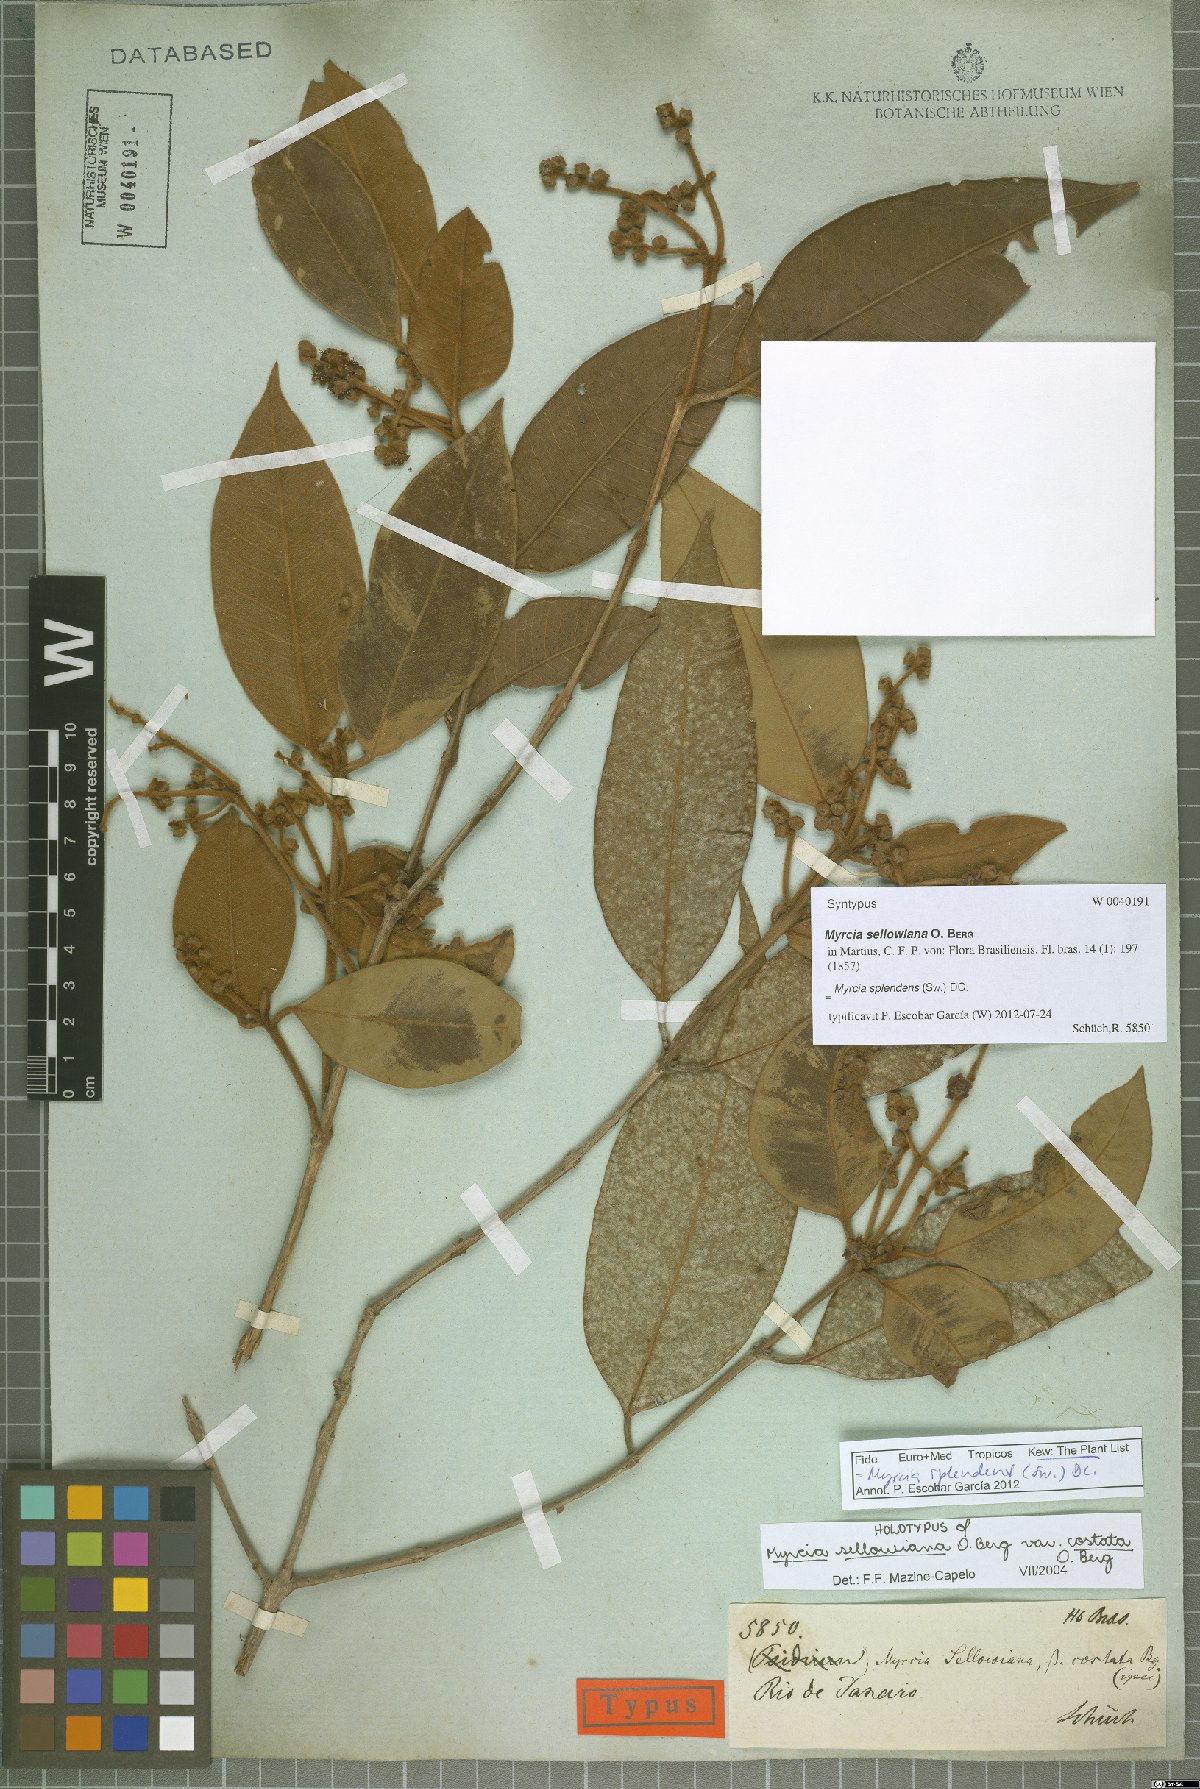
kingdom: Plantae
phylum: Tracheophyta
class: Magnoliopsida
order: Myrtales
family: Myrtaceae
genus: Myrcia
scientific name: Myrcia splendens
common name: Surinam cherry
